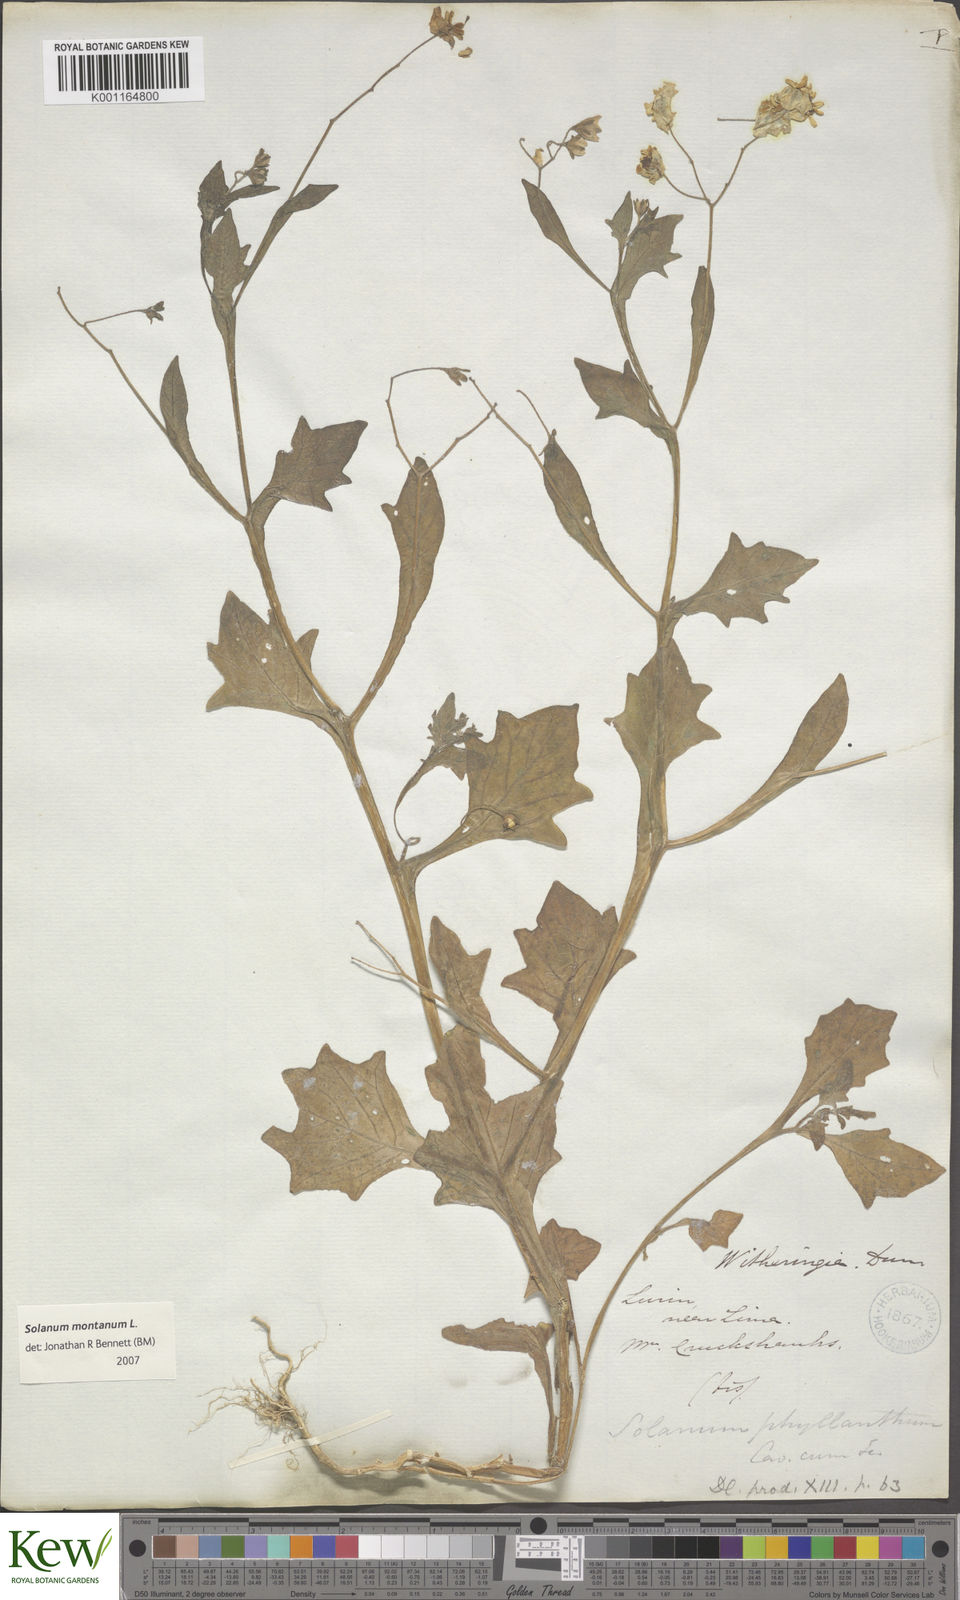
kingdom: Plantae
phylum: Tracheophyta
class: Magnoliopsida
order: Solanales
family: Solanaceae
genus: Solanum
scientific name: Solanum montanum
